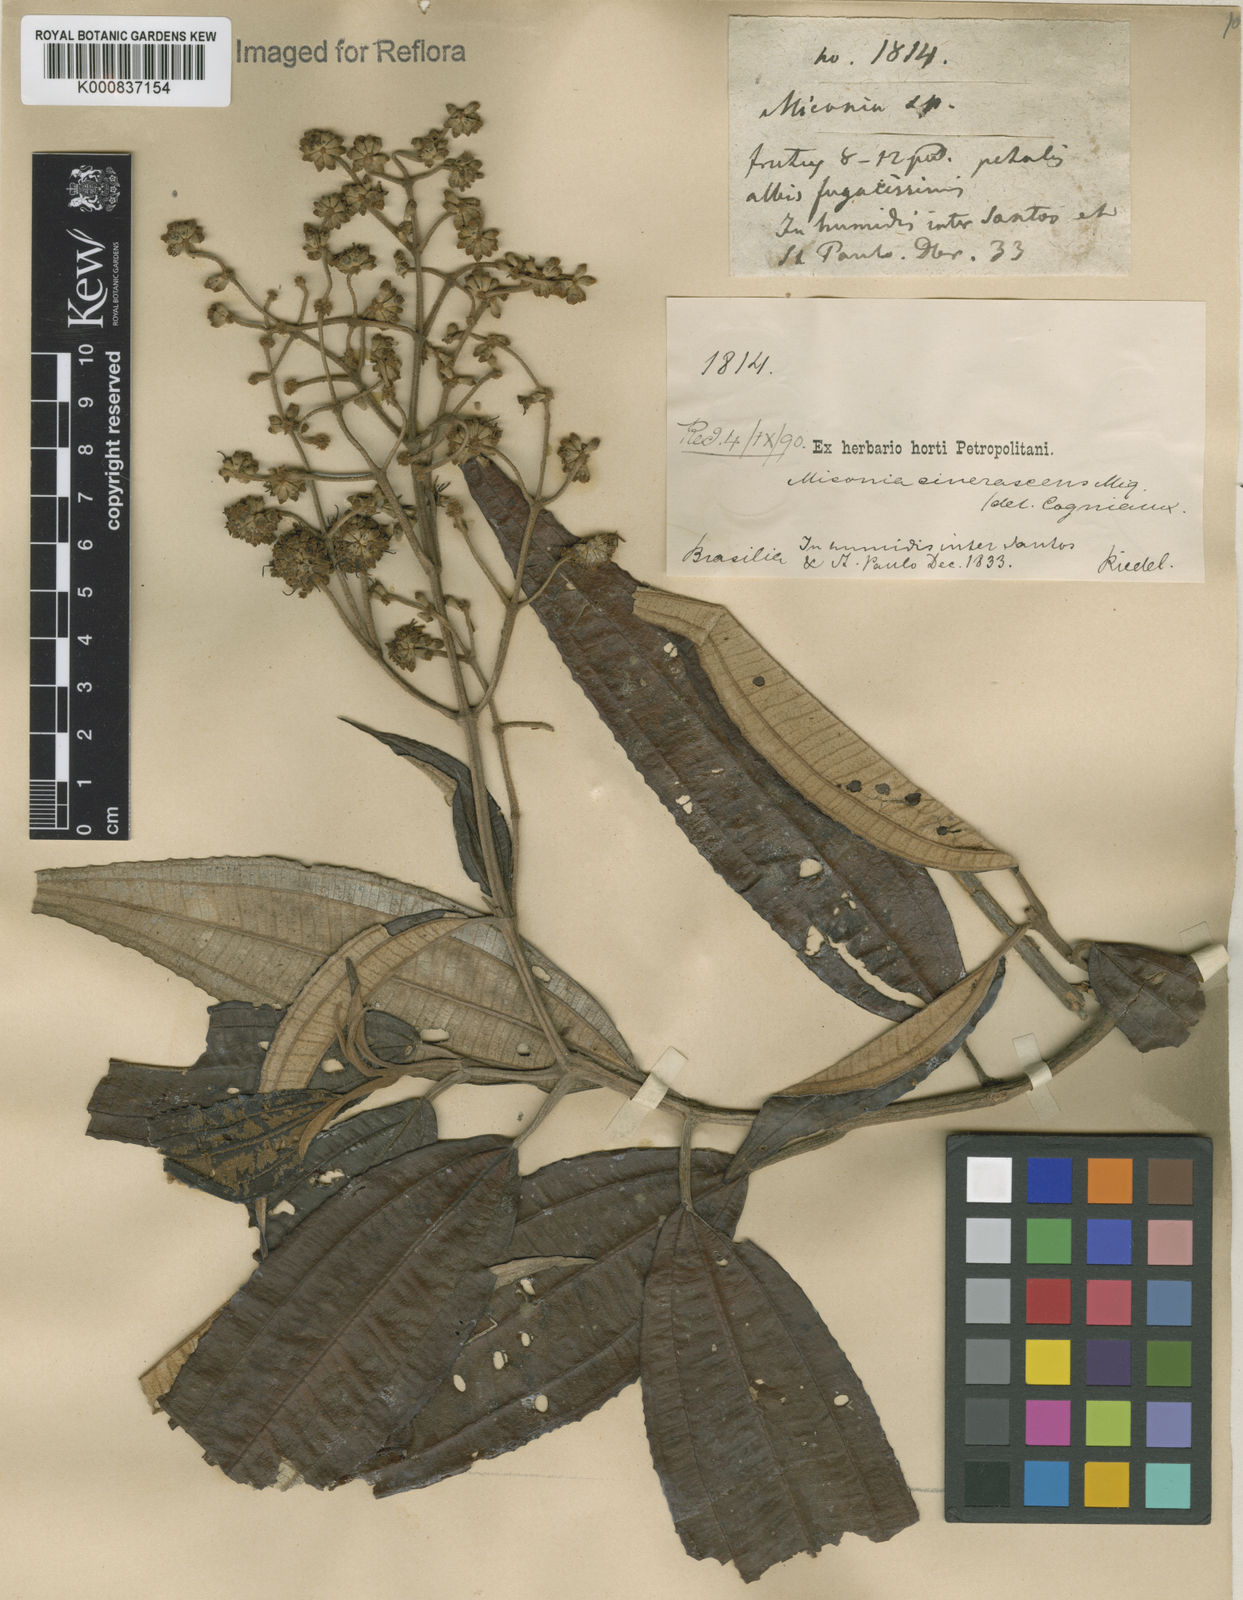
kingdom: Plantae
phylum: Tracheophyta
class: Magnoliopsida
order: Myrtales
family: Melastomataceae
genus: Miconia
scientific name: Miconia cinerascens
